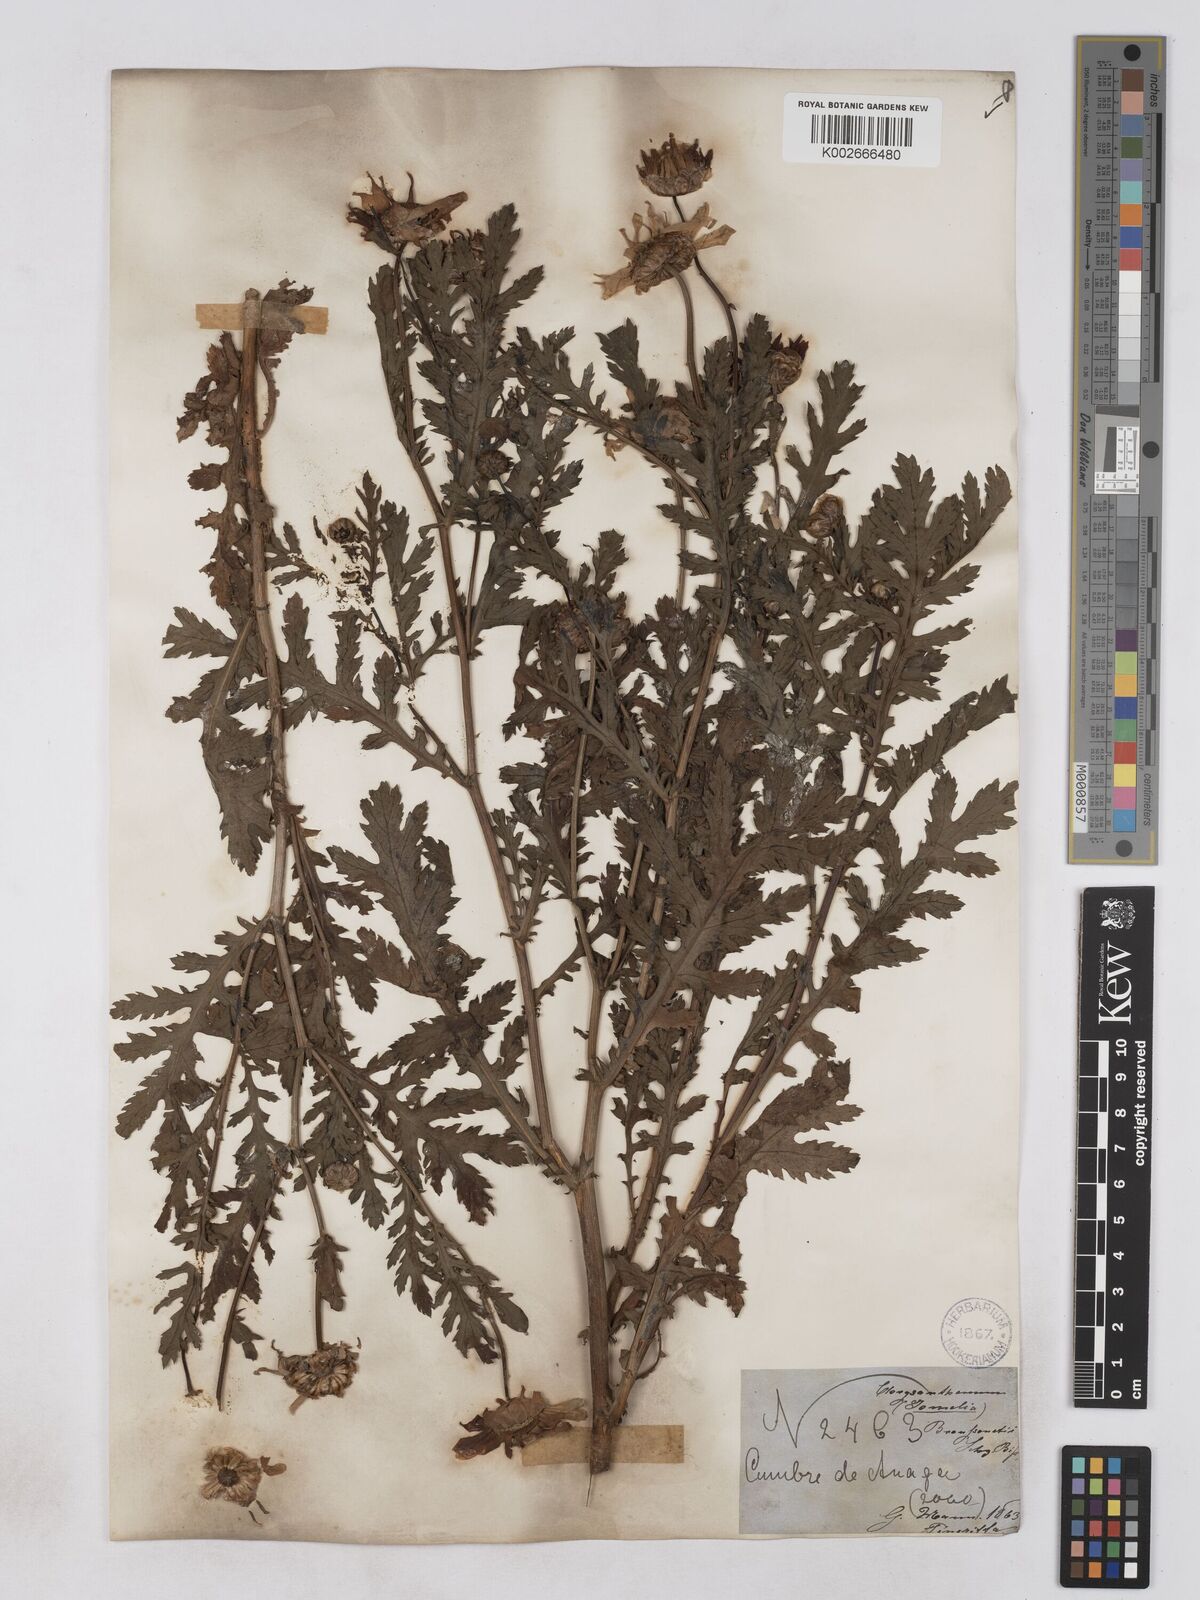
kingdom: Plantae
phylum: Tracheophyta
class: Magnoliopsida
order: Asterales
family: Asteraceae
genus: Argyranthemum
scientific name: Argyranthemum broussonetii
